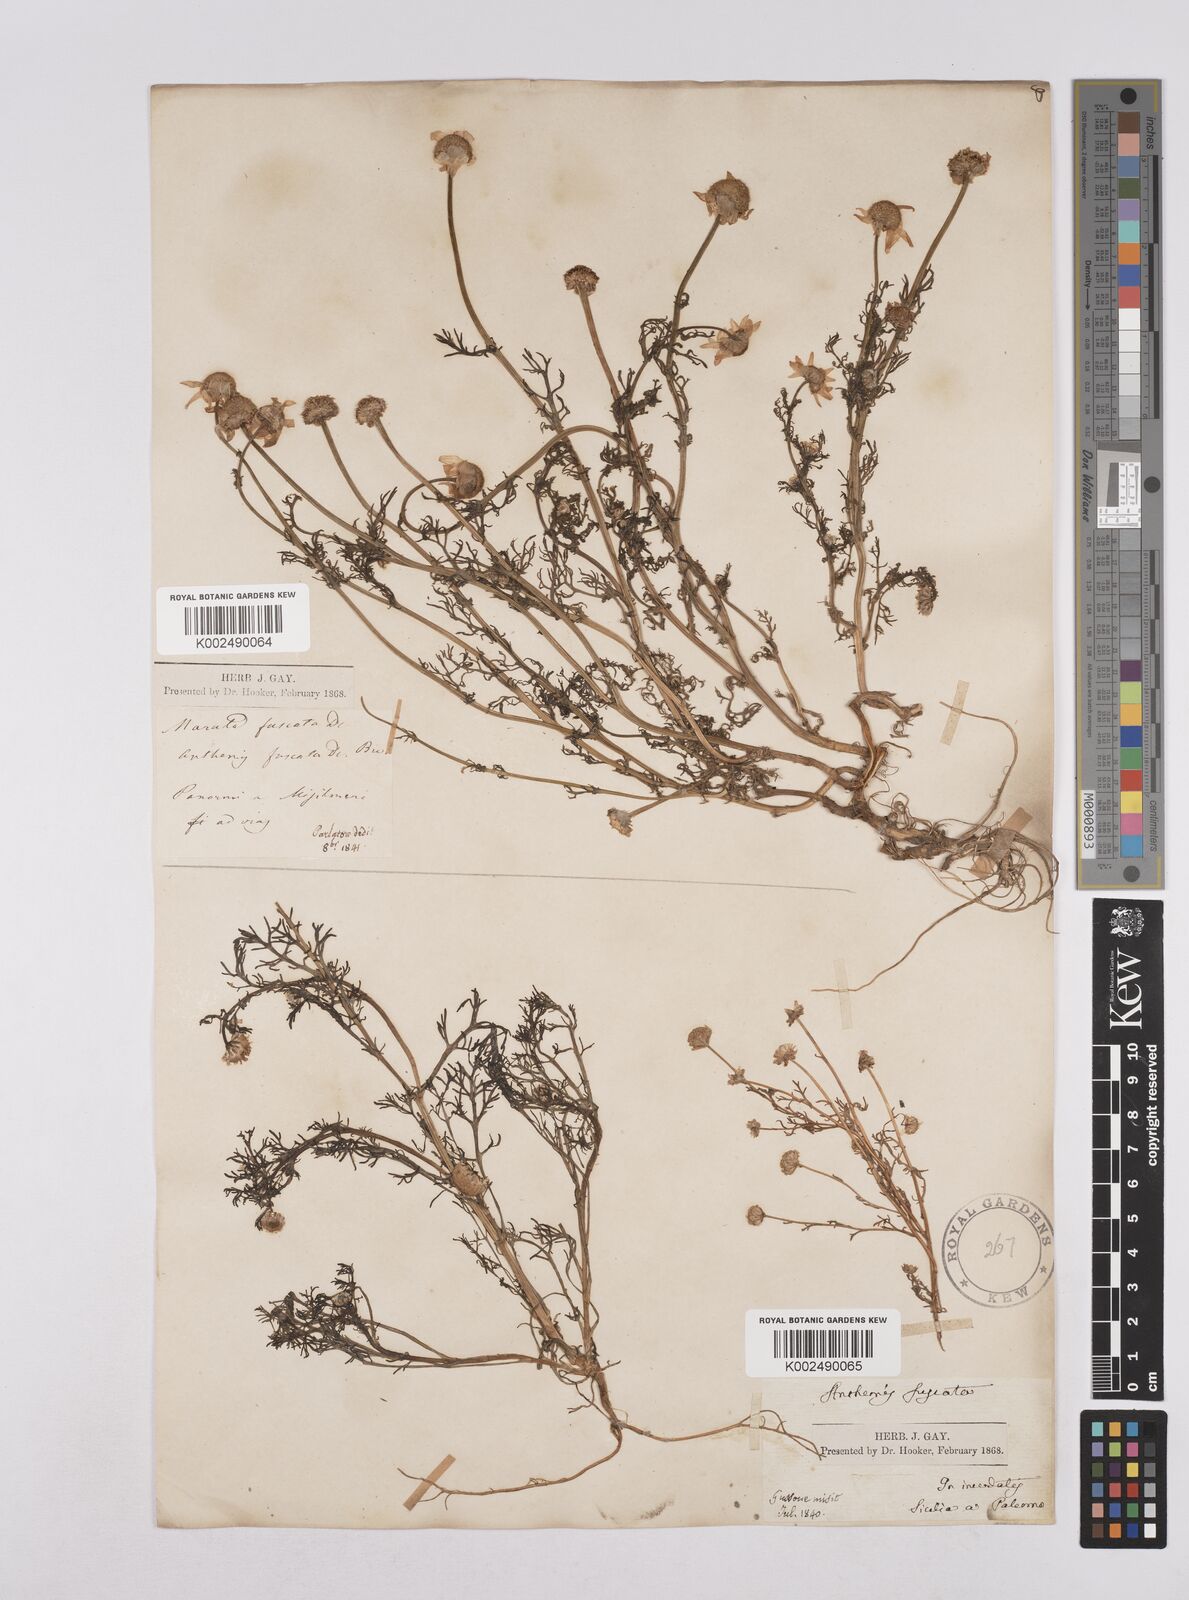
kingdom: Plantae
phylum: Tracheophyta
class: Magnoliopsida
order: Asterales
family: Asteraceae
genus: Chamaemelum
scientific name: Chamaemelum fuscatum
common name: Chamomile
